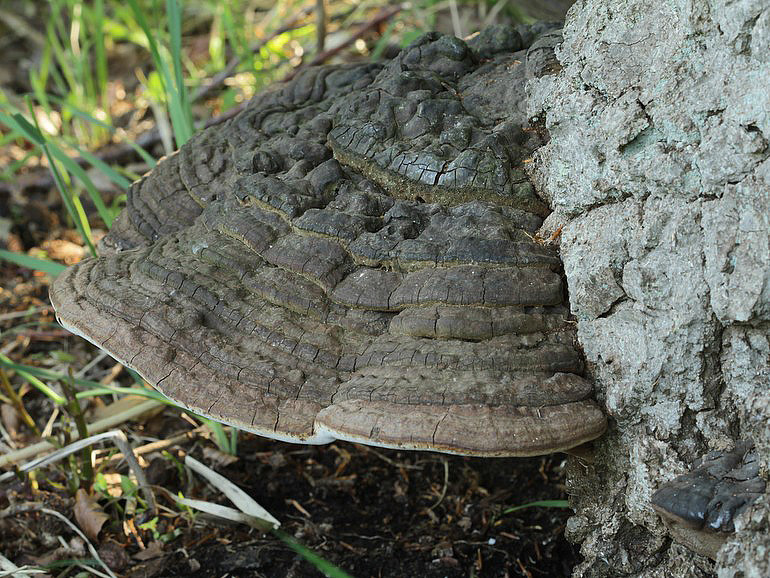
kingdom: Fungi
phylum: Basidiomycota
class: Agaricomycetes
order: Polyporales
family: Polyporaceae
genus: Ganoderma
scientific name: Ganoderma adspersum
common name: grov lakporesvamp
